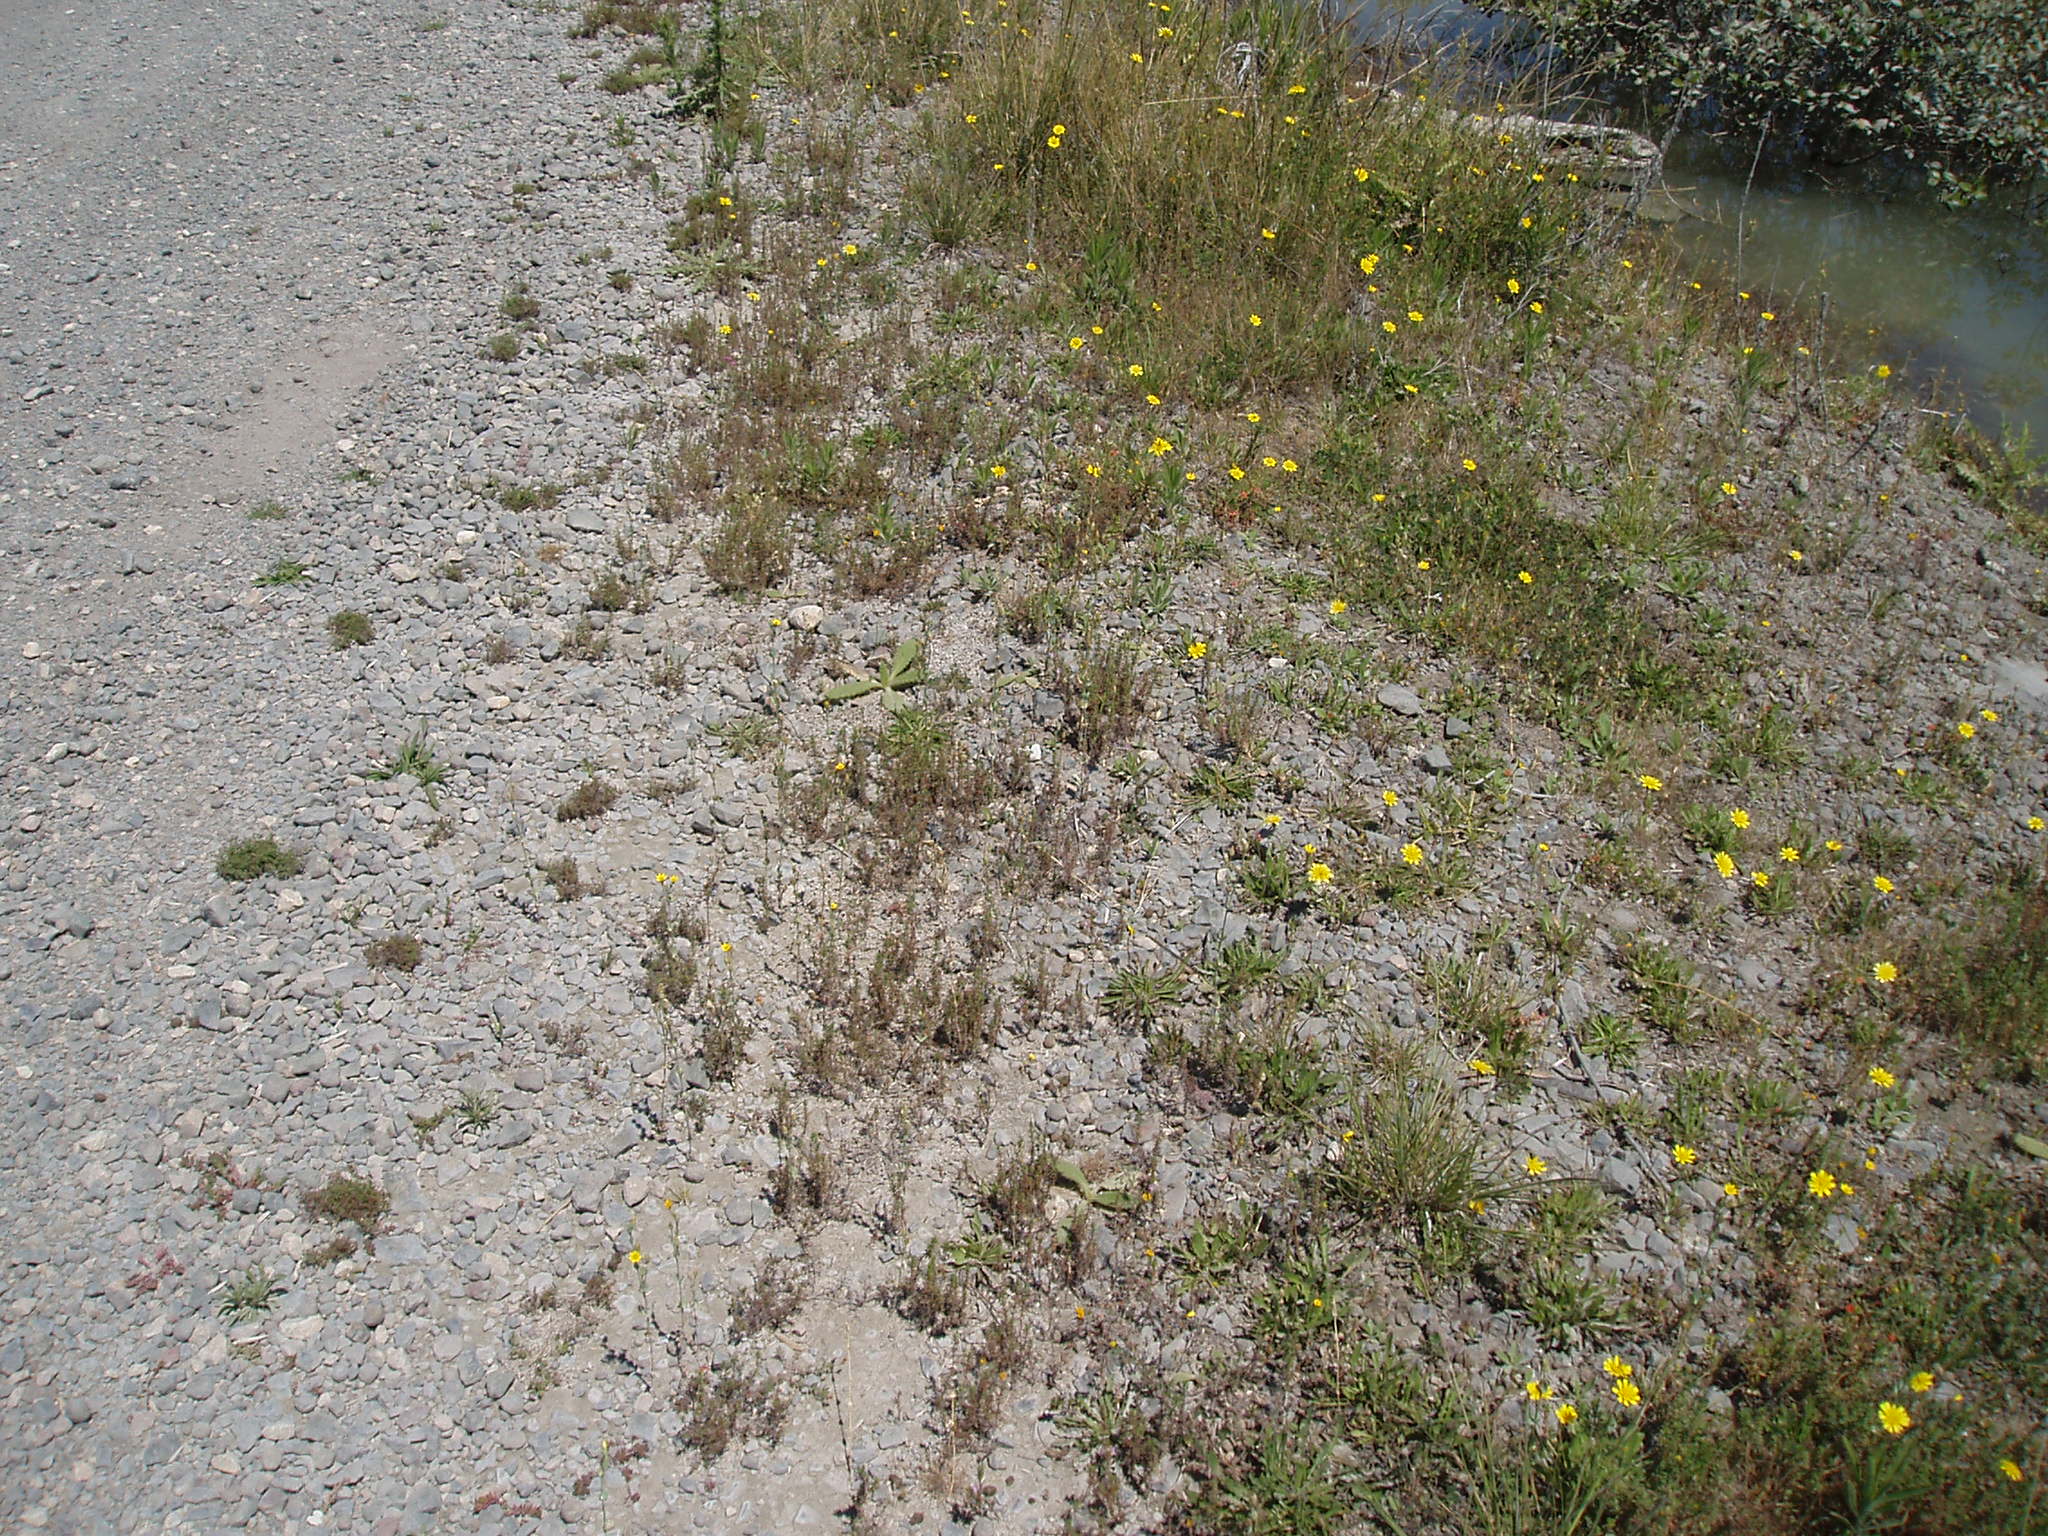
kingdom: Plantae
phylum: Tracheophyta
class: Magnoliopsida
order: Gentianales
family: Gentianaceae
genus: Blackstonia
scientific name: Blackstonia perfoliata
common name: Yellow-wort
